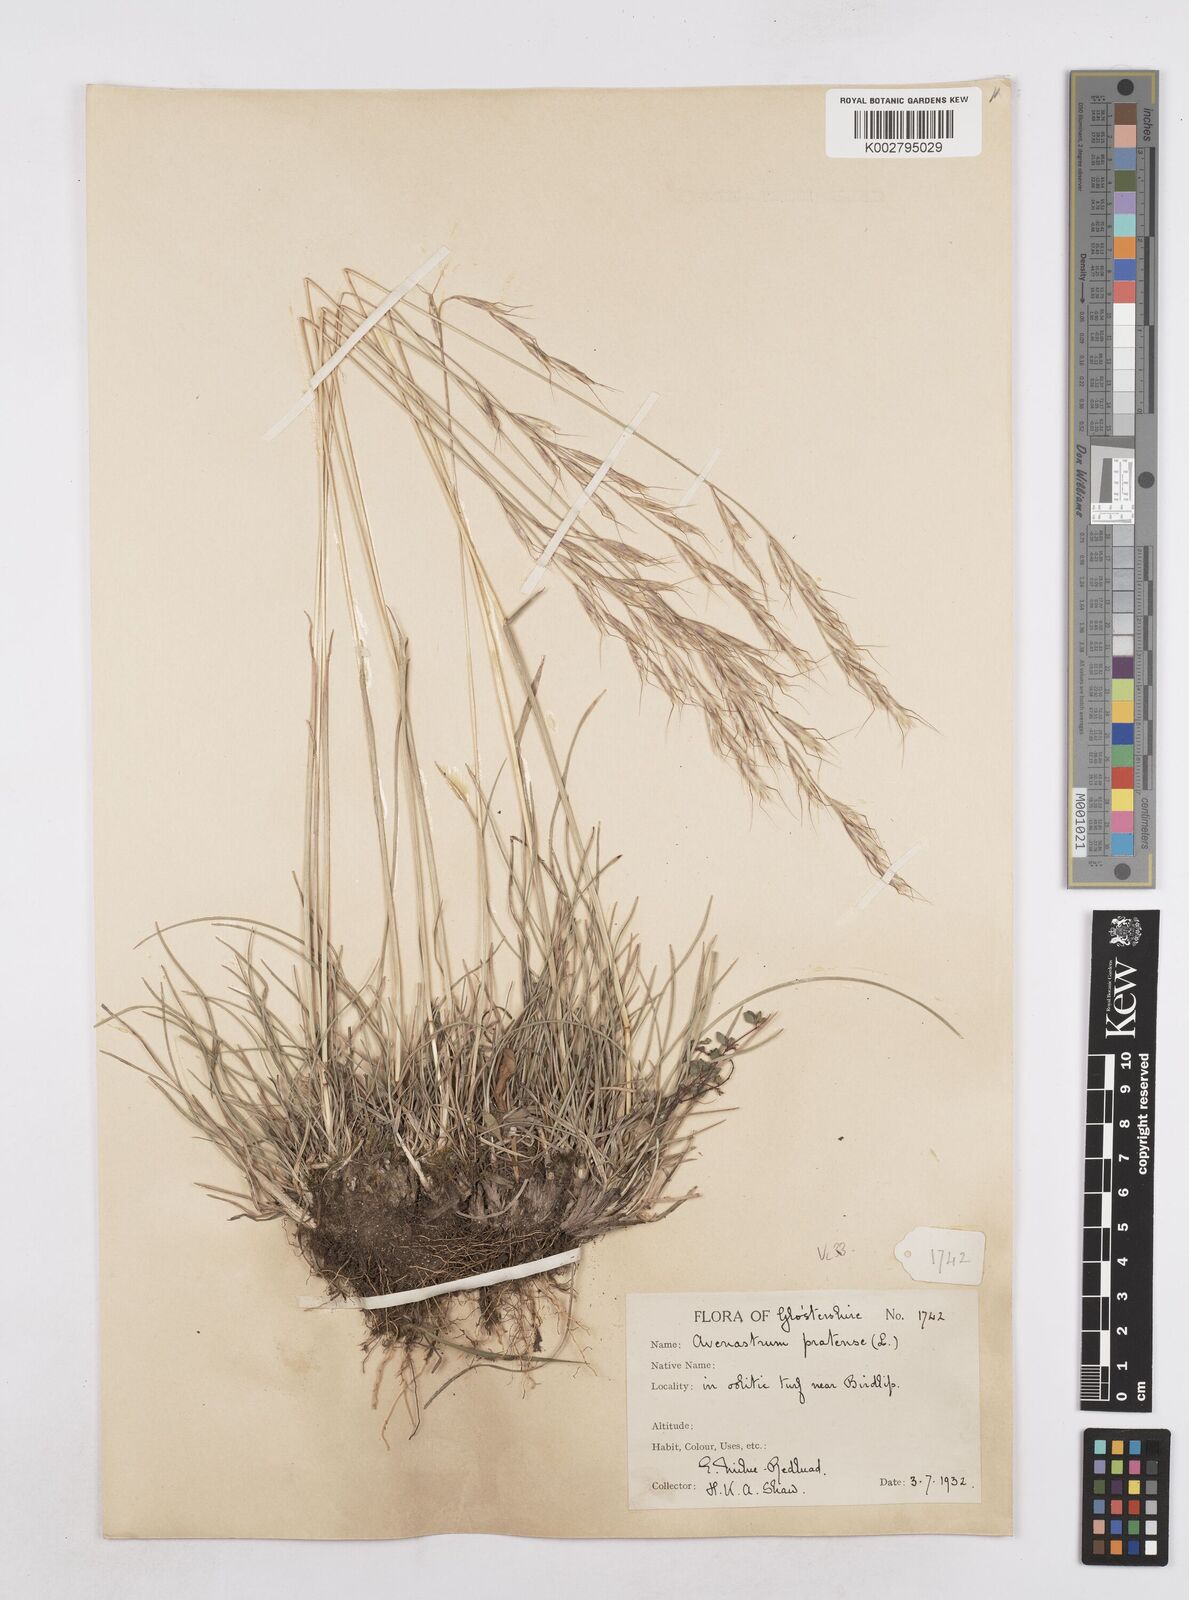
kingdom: Plantae
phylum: Tracheophyta
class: Liliopsida
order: Poales
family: Poaceae
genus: Helictochloa
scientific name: Helictochloa pratensis
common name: Meadow oat grass
